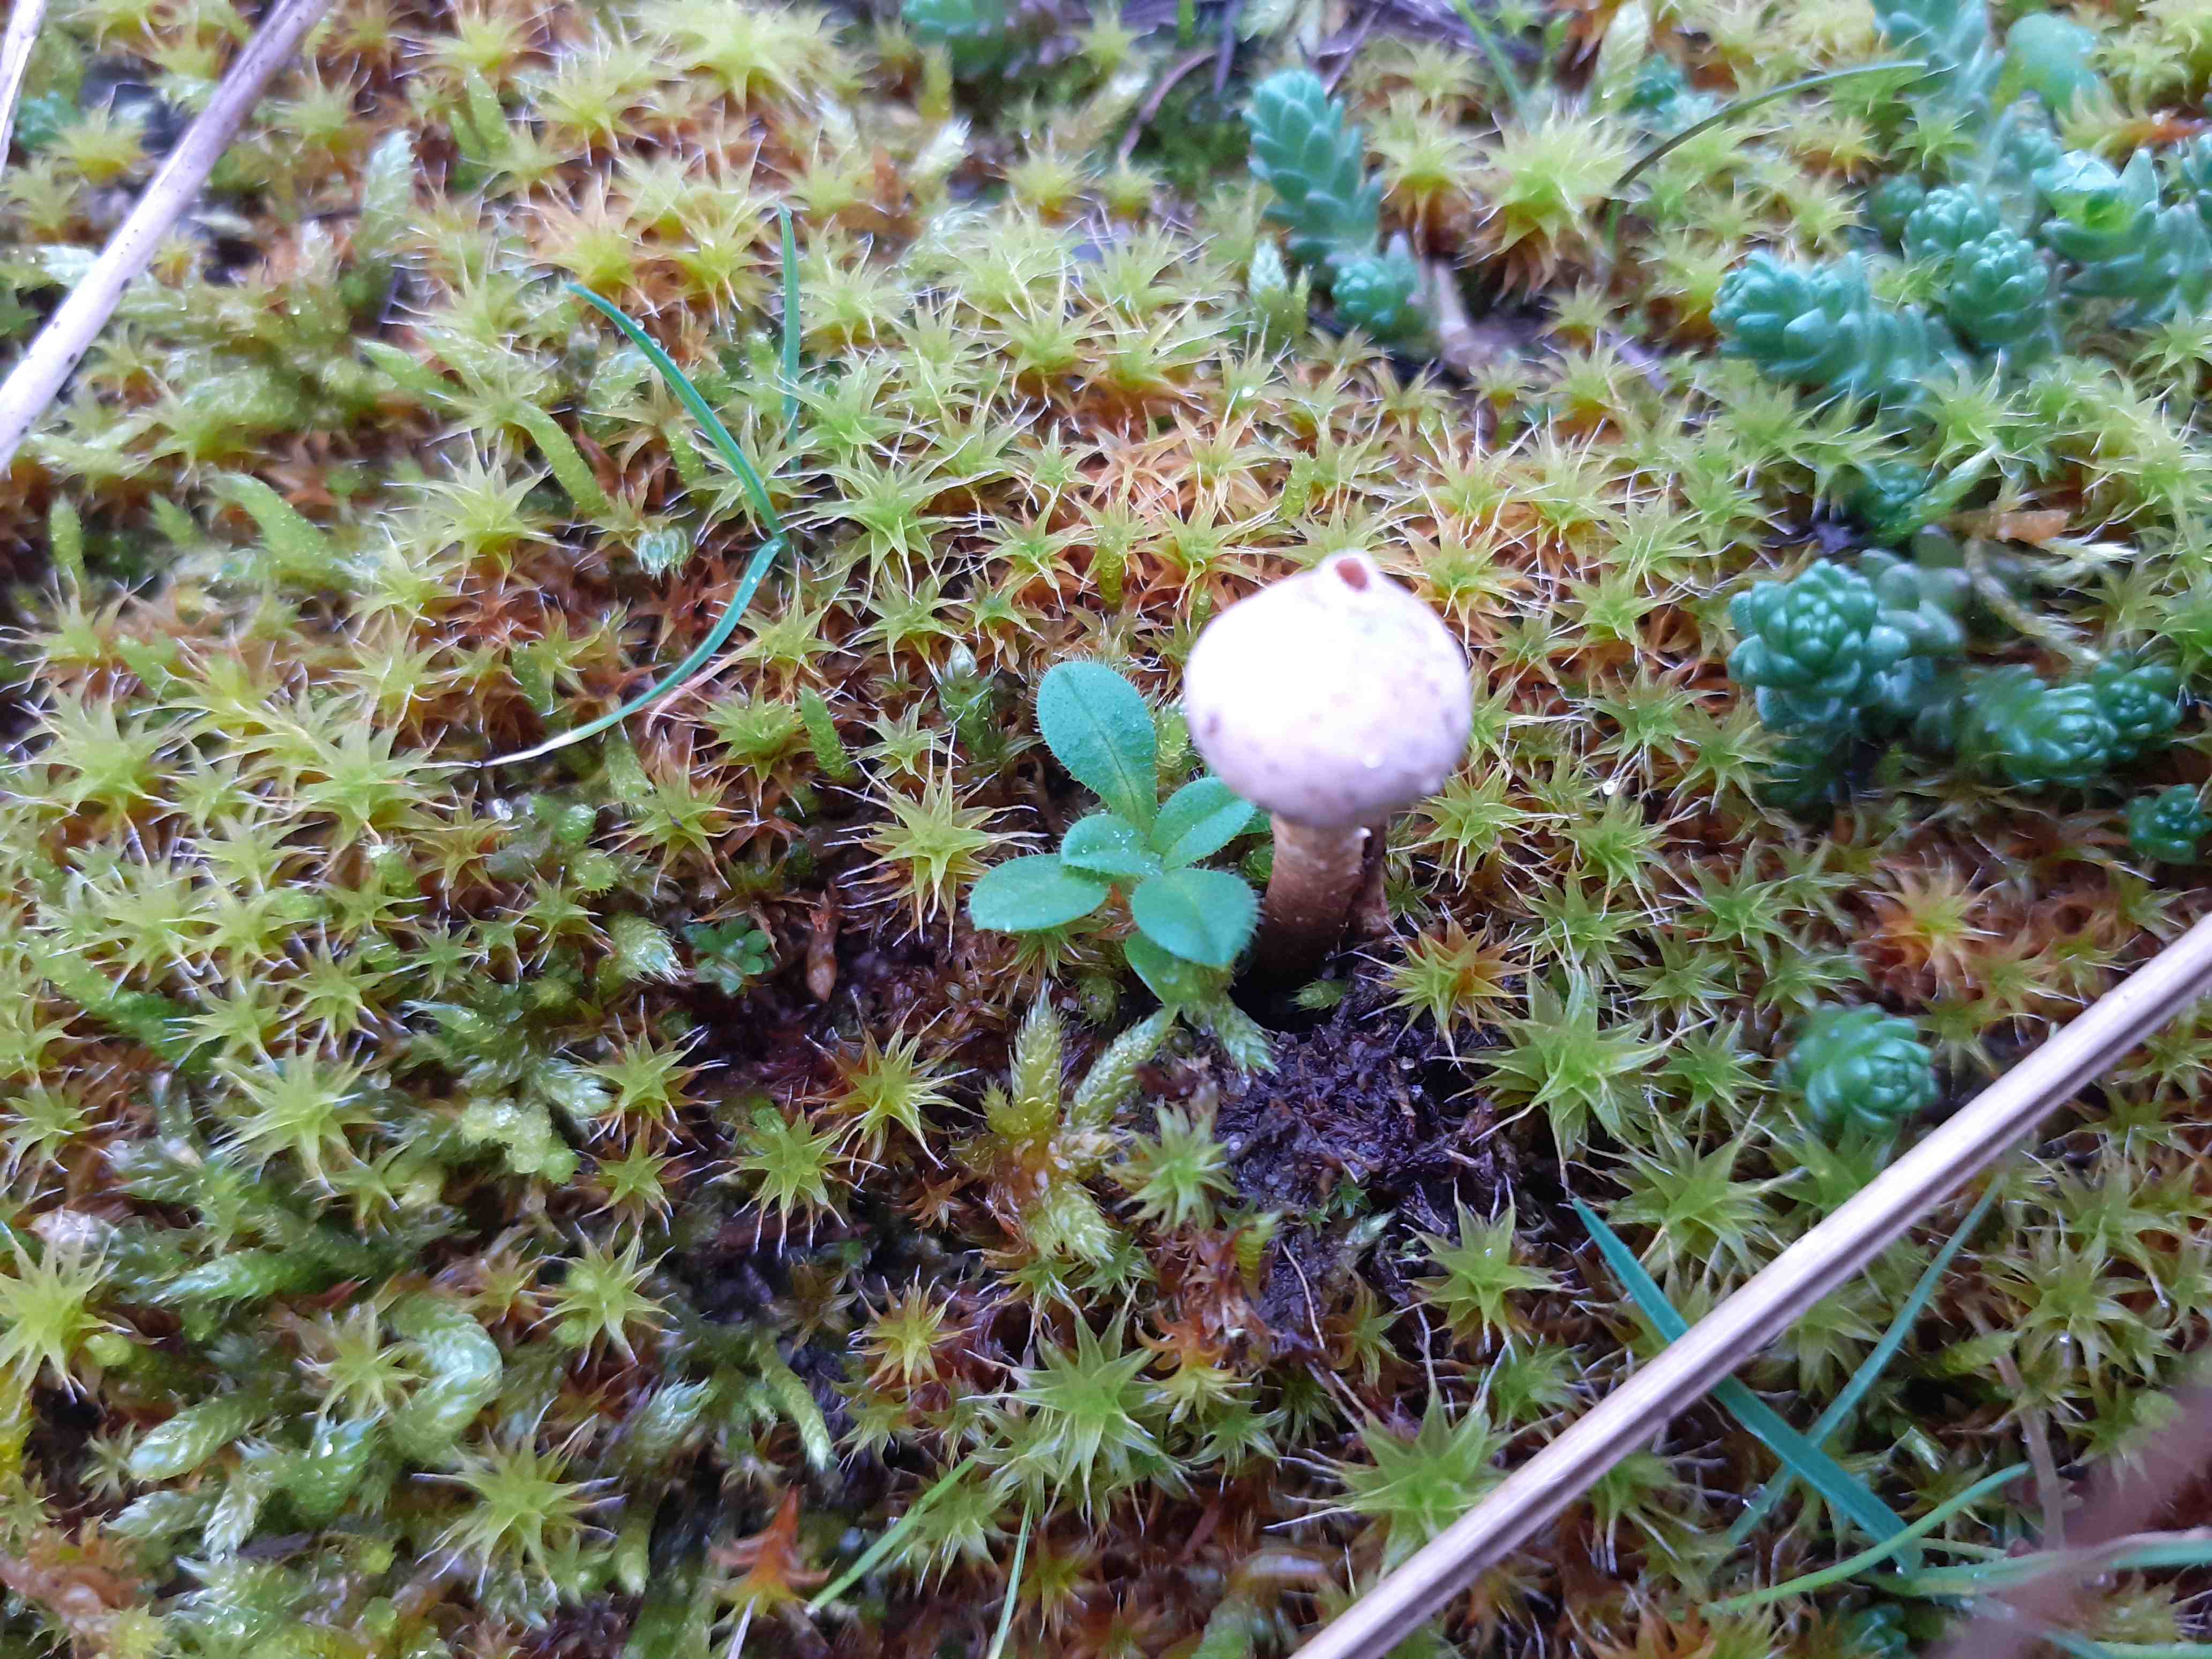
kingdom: Fungi
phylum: Basidiomycota
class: Agaricomycetes
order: Agaricales
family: Agaricaceae
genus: Tulostoma
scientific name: Tulostoma
